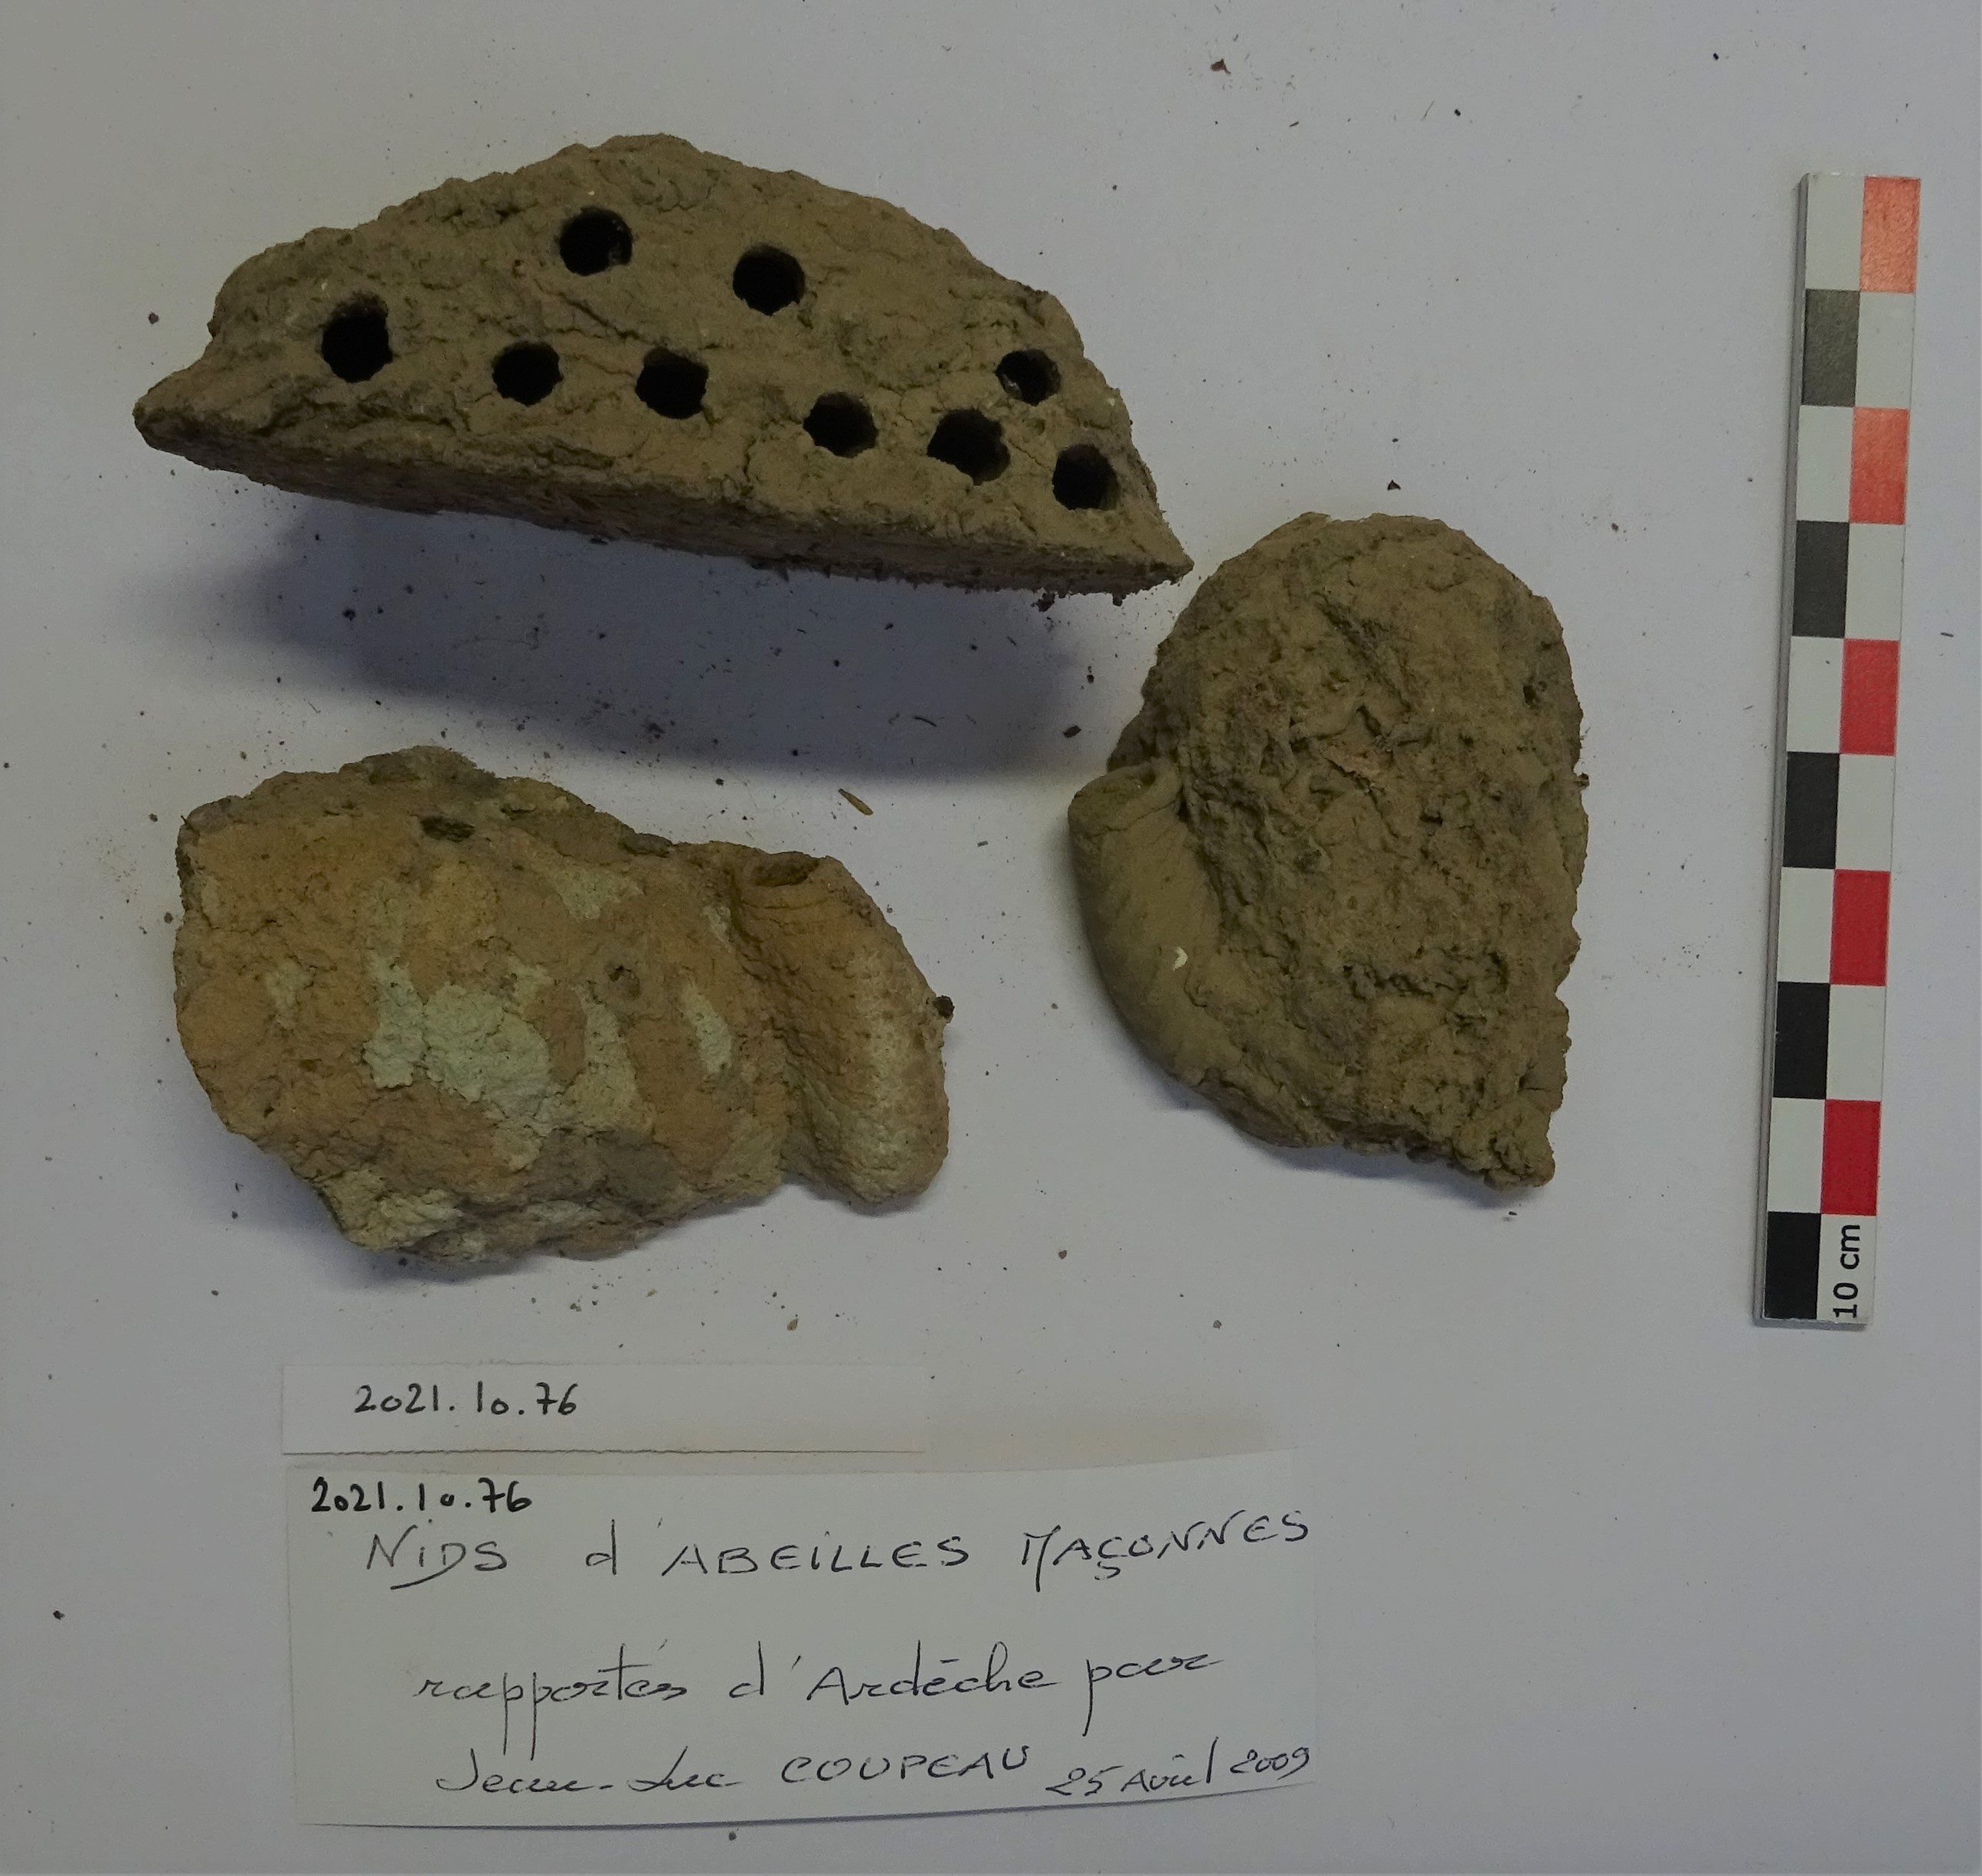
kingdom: Animalia
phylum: Arthropoda
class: Insecta
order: Hymenoptera
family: Megachilidae
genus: Osmia
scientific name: Osmia bicornis
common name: Red mason bee
